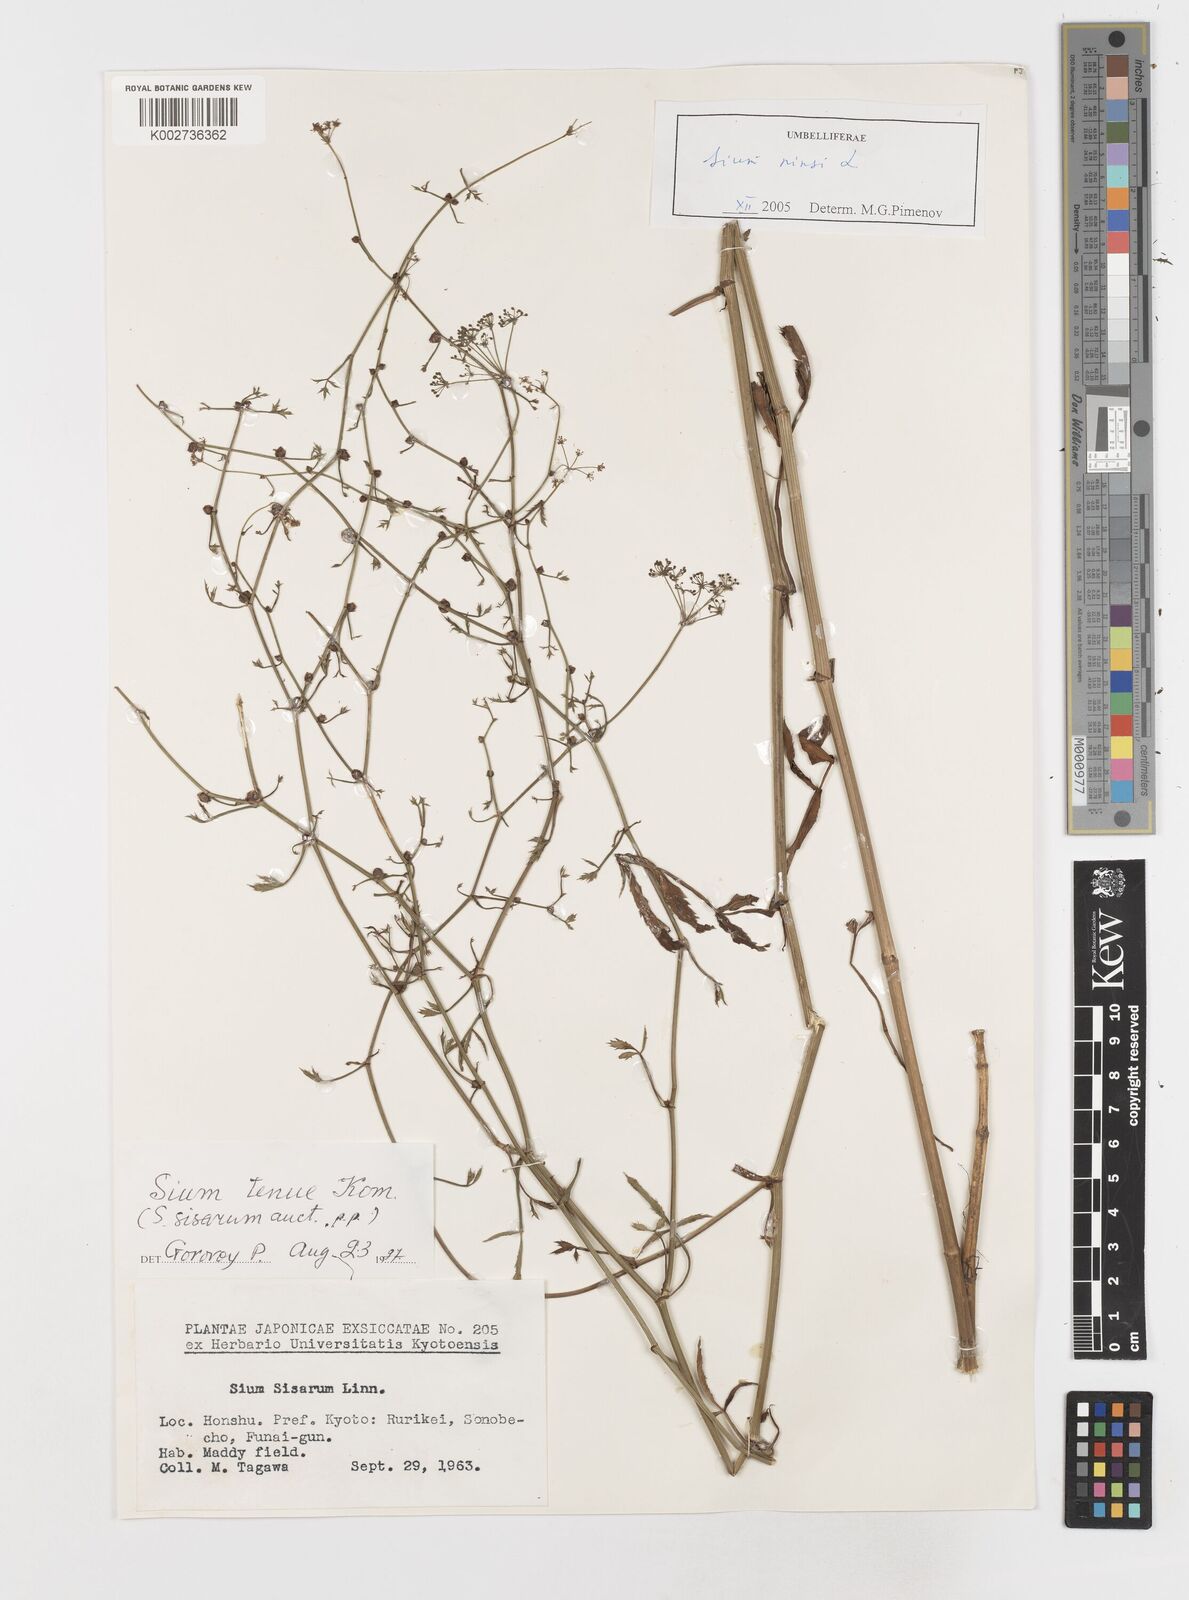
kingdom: Plantae
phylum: Tracheophyta
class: Magnoliopsida
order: Apiales
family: Apiaceae
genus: Sium
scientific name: Sium ninsi
